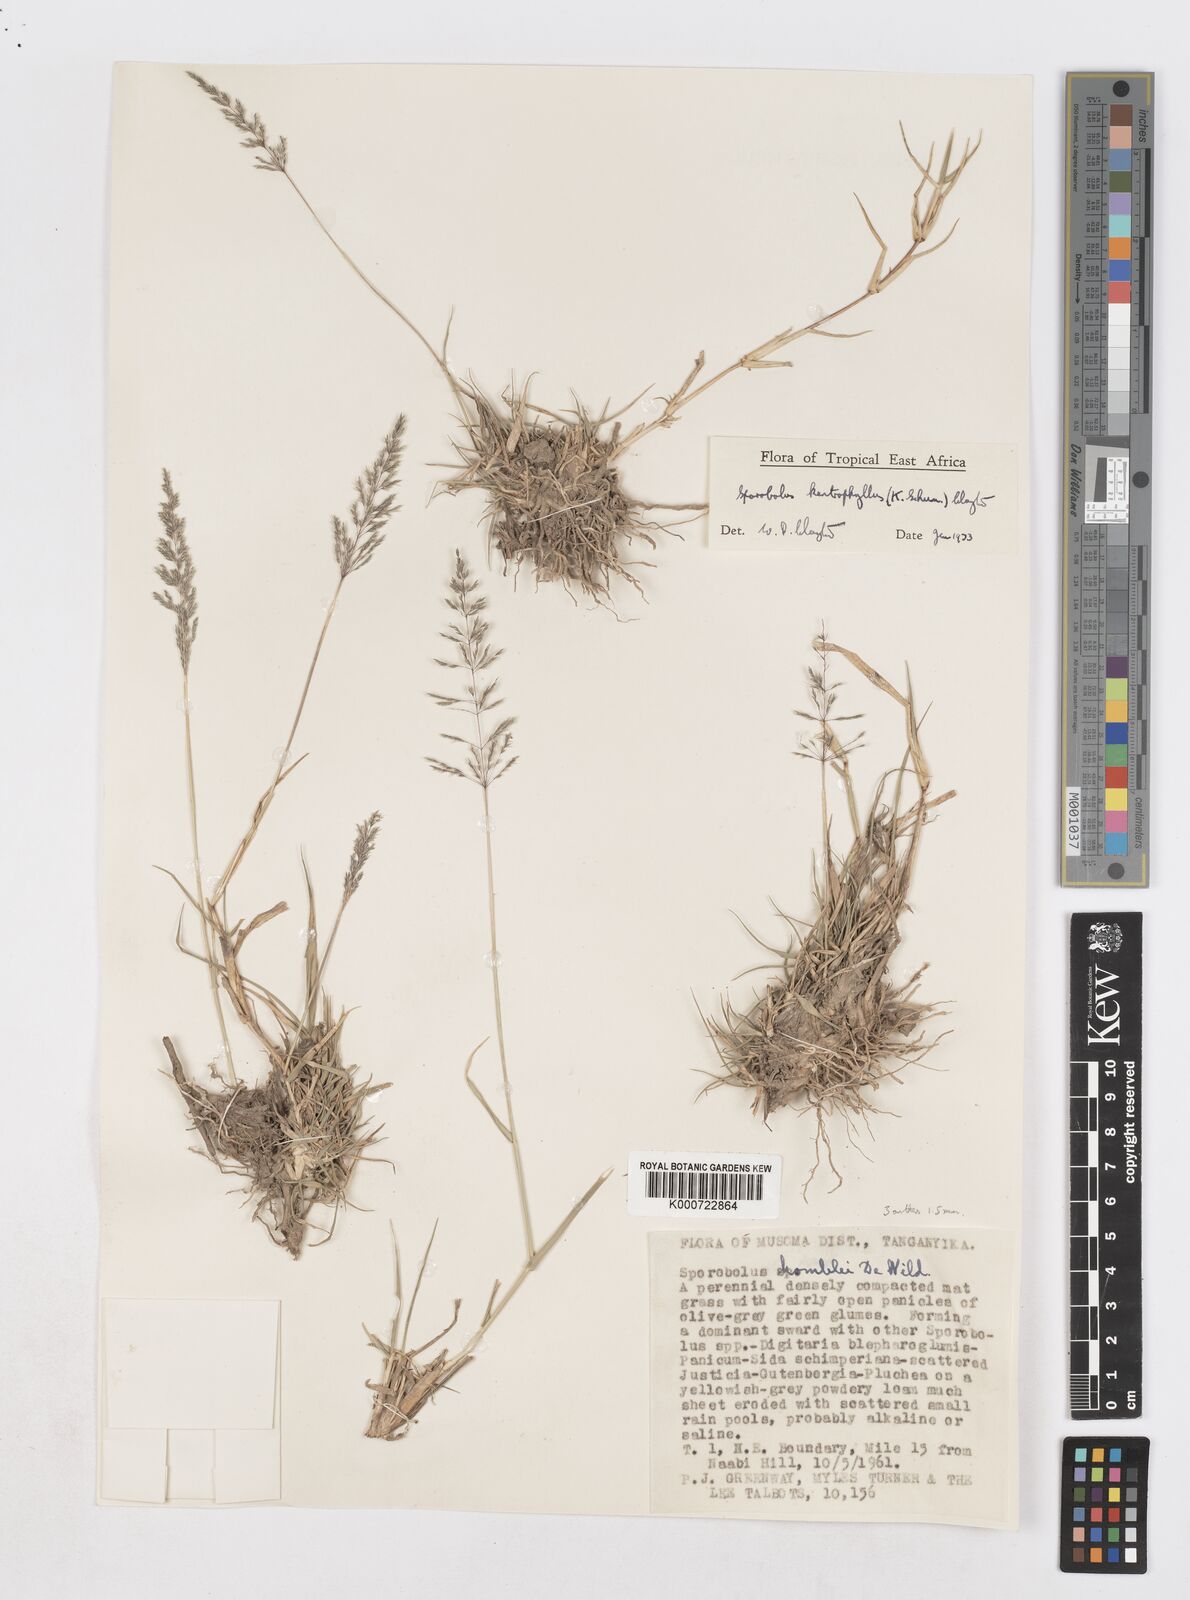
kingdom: Plantae
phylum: Tracheophyta
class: Liliopsida
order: Poales
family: Poaceae
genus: Sporobolus
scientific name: Sporobolus ioclados
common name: Pan dropseed
